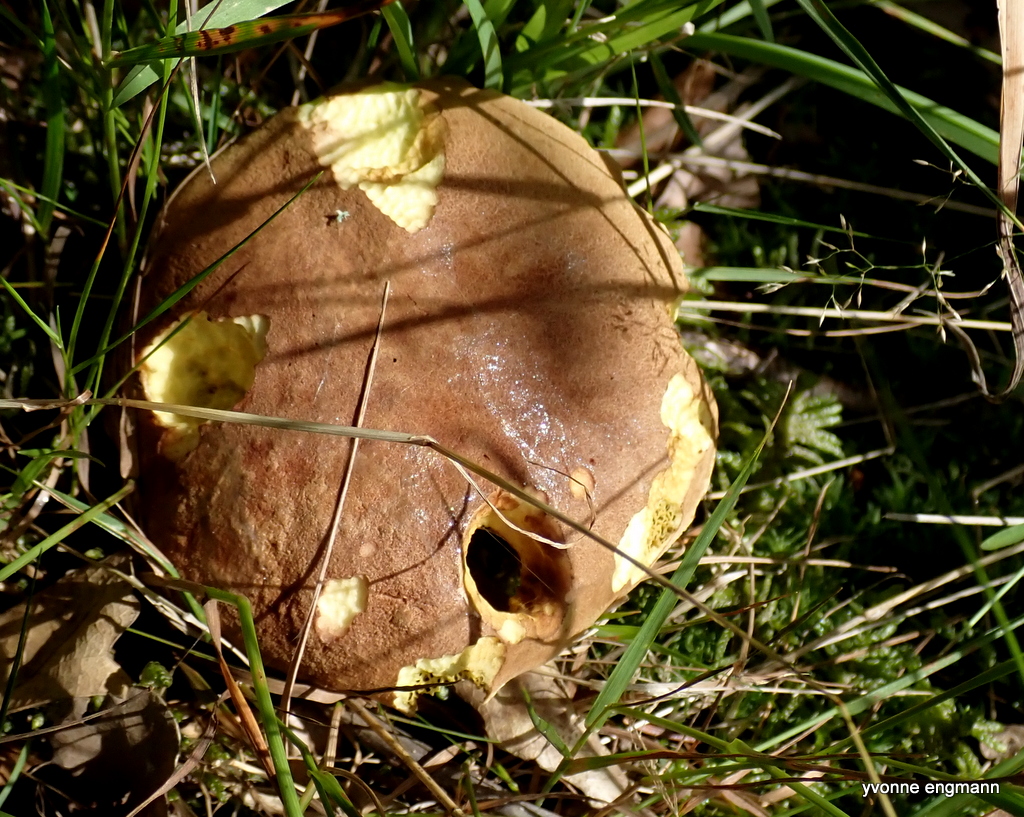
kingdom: Fungi
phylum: Basidiomycota
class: Agaricomycetes
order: Boletales
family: Boletaceae
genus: Xerocomus
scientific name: Xerocomus subtomentosus
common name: filtet rørhat
